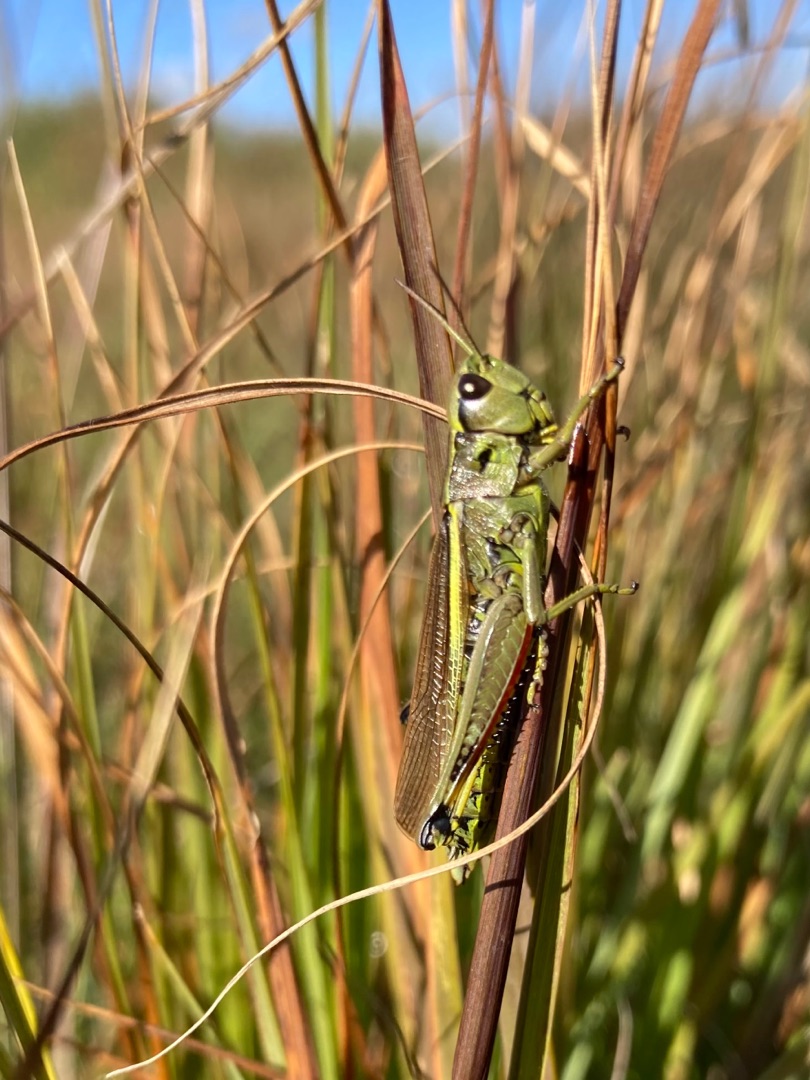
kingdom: Animalia
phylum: Arthropoda
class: Insecta
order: Orthoptera
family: Acrididae
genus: Stethophyma
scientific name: Stethophyma grossum
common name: Sumpgræshoppe
